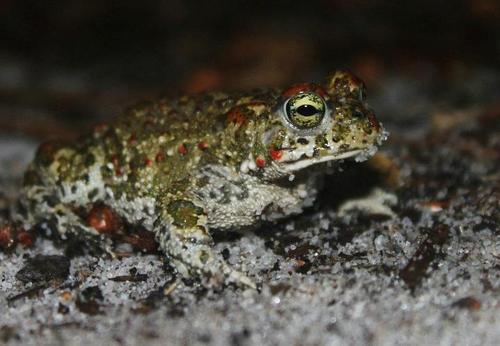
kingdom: Animalia
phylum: Chordata
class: Amphibia
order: Anura
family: Bufonidae
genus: Epidalea
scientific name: Epidalea calamita
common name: Natterjack toad
